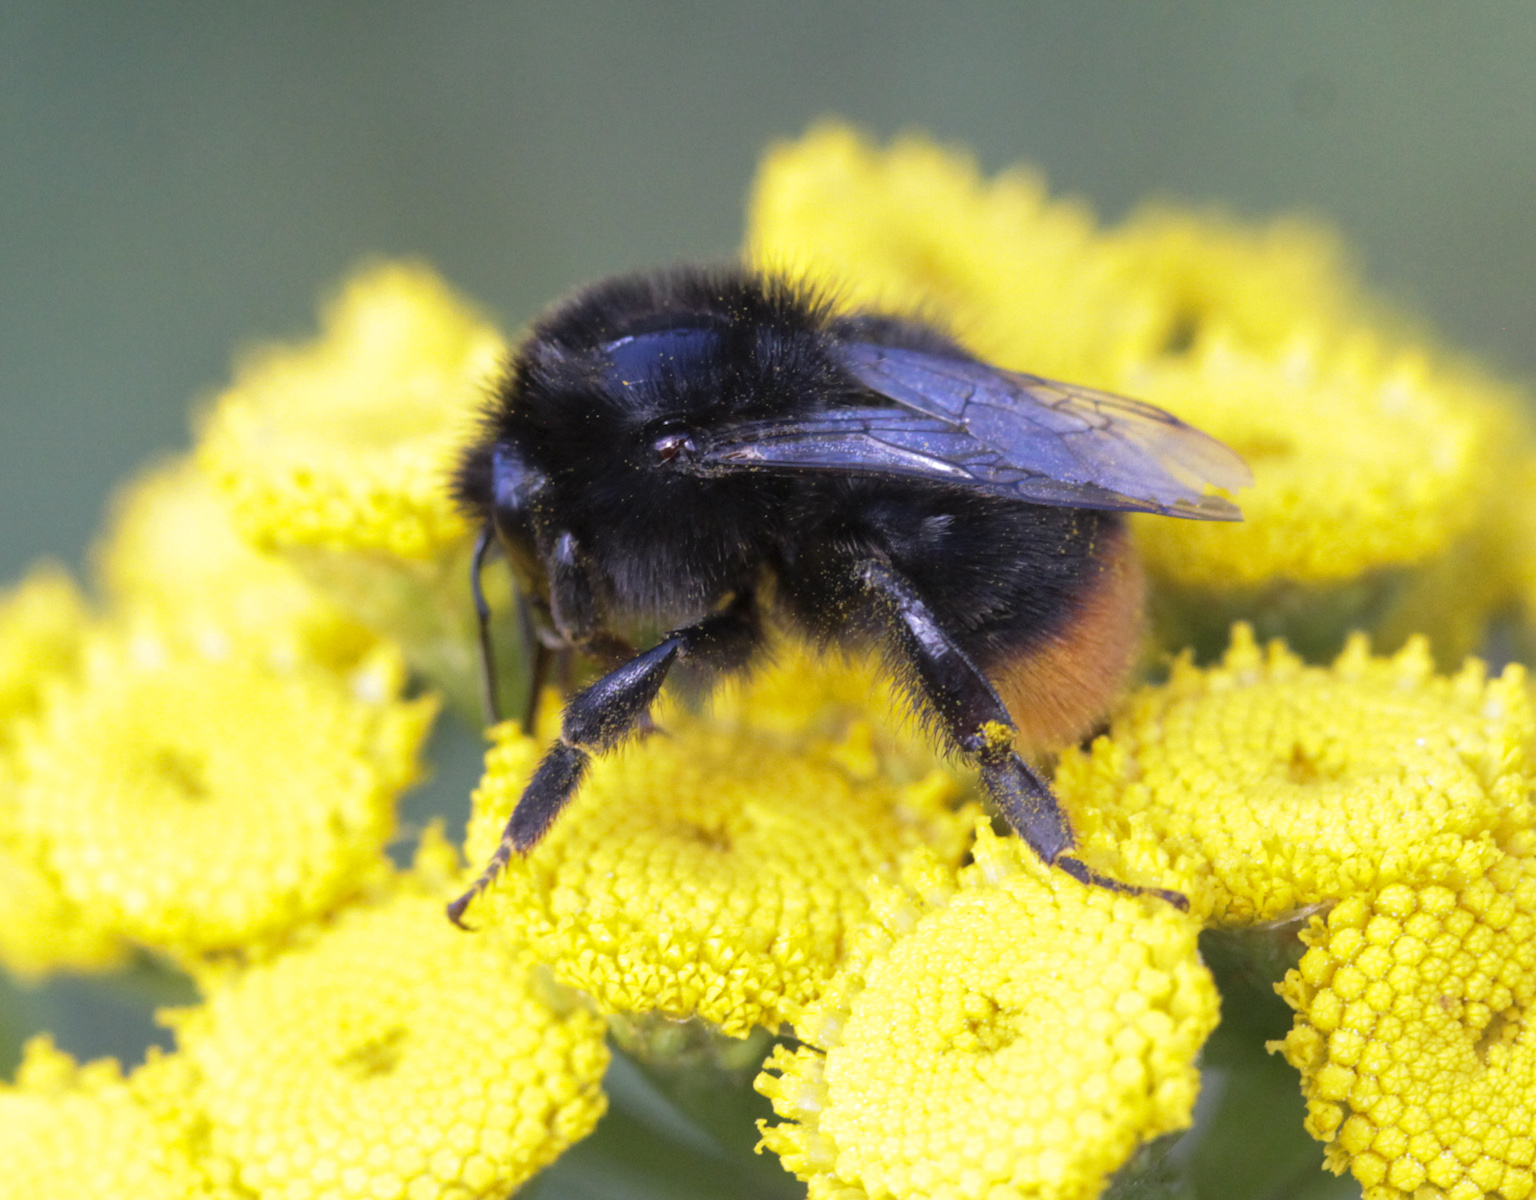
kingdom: Animalia
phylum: Arthropoda
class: Insecta
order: Hymenoptera
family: Apidae
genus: Bombus
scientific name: Bombus lapidarius
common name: Large red-tailed humble-bee
